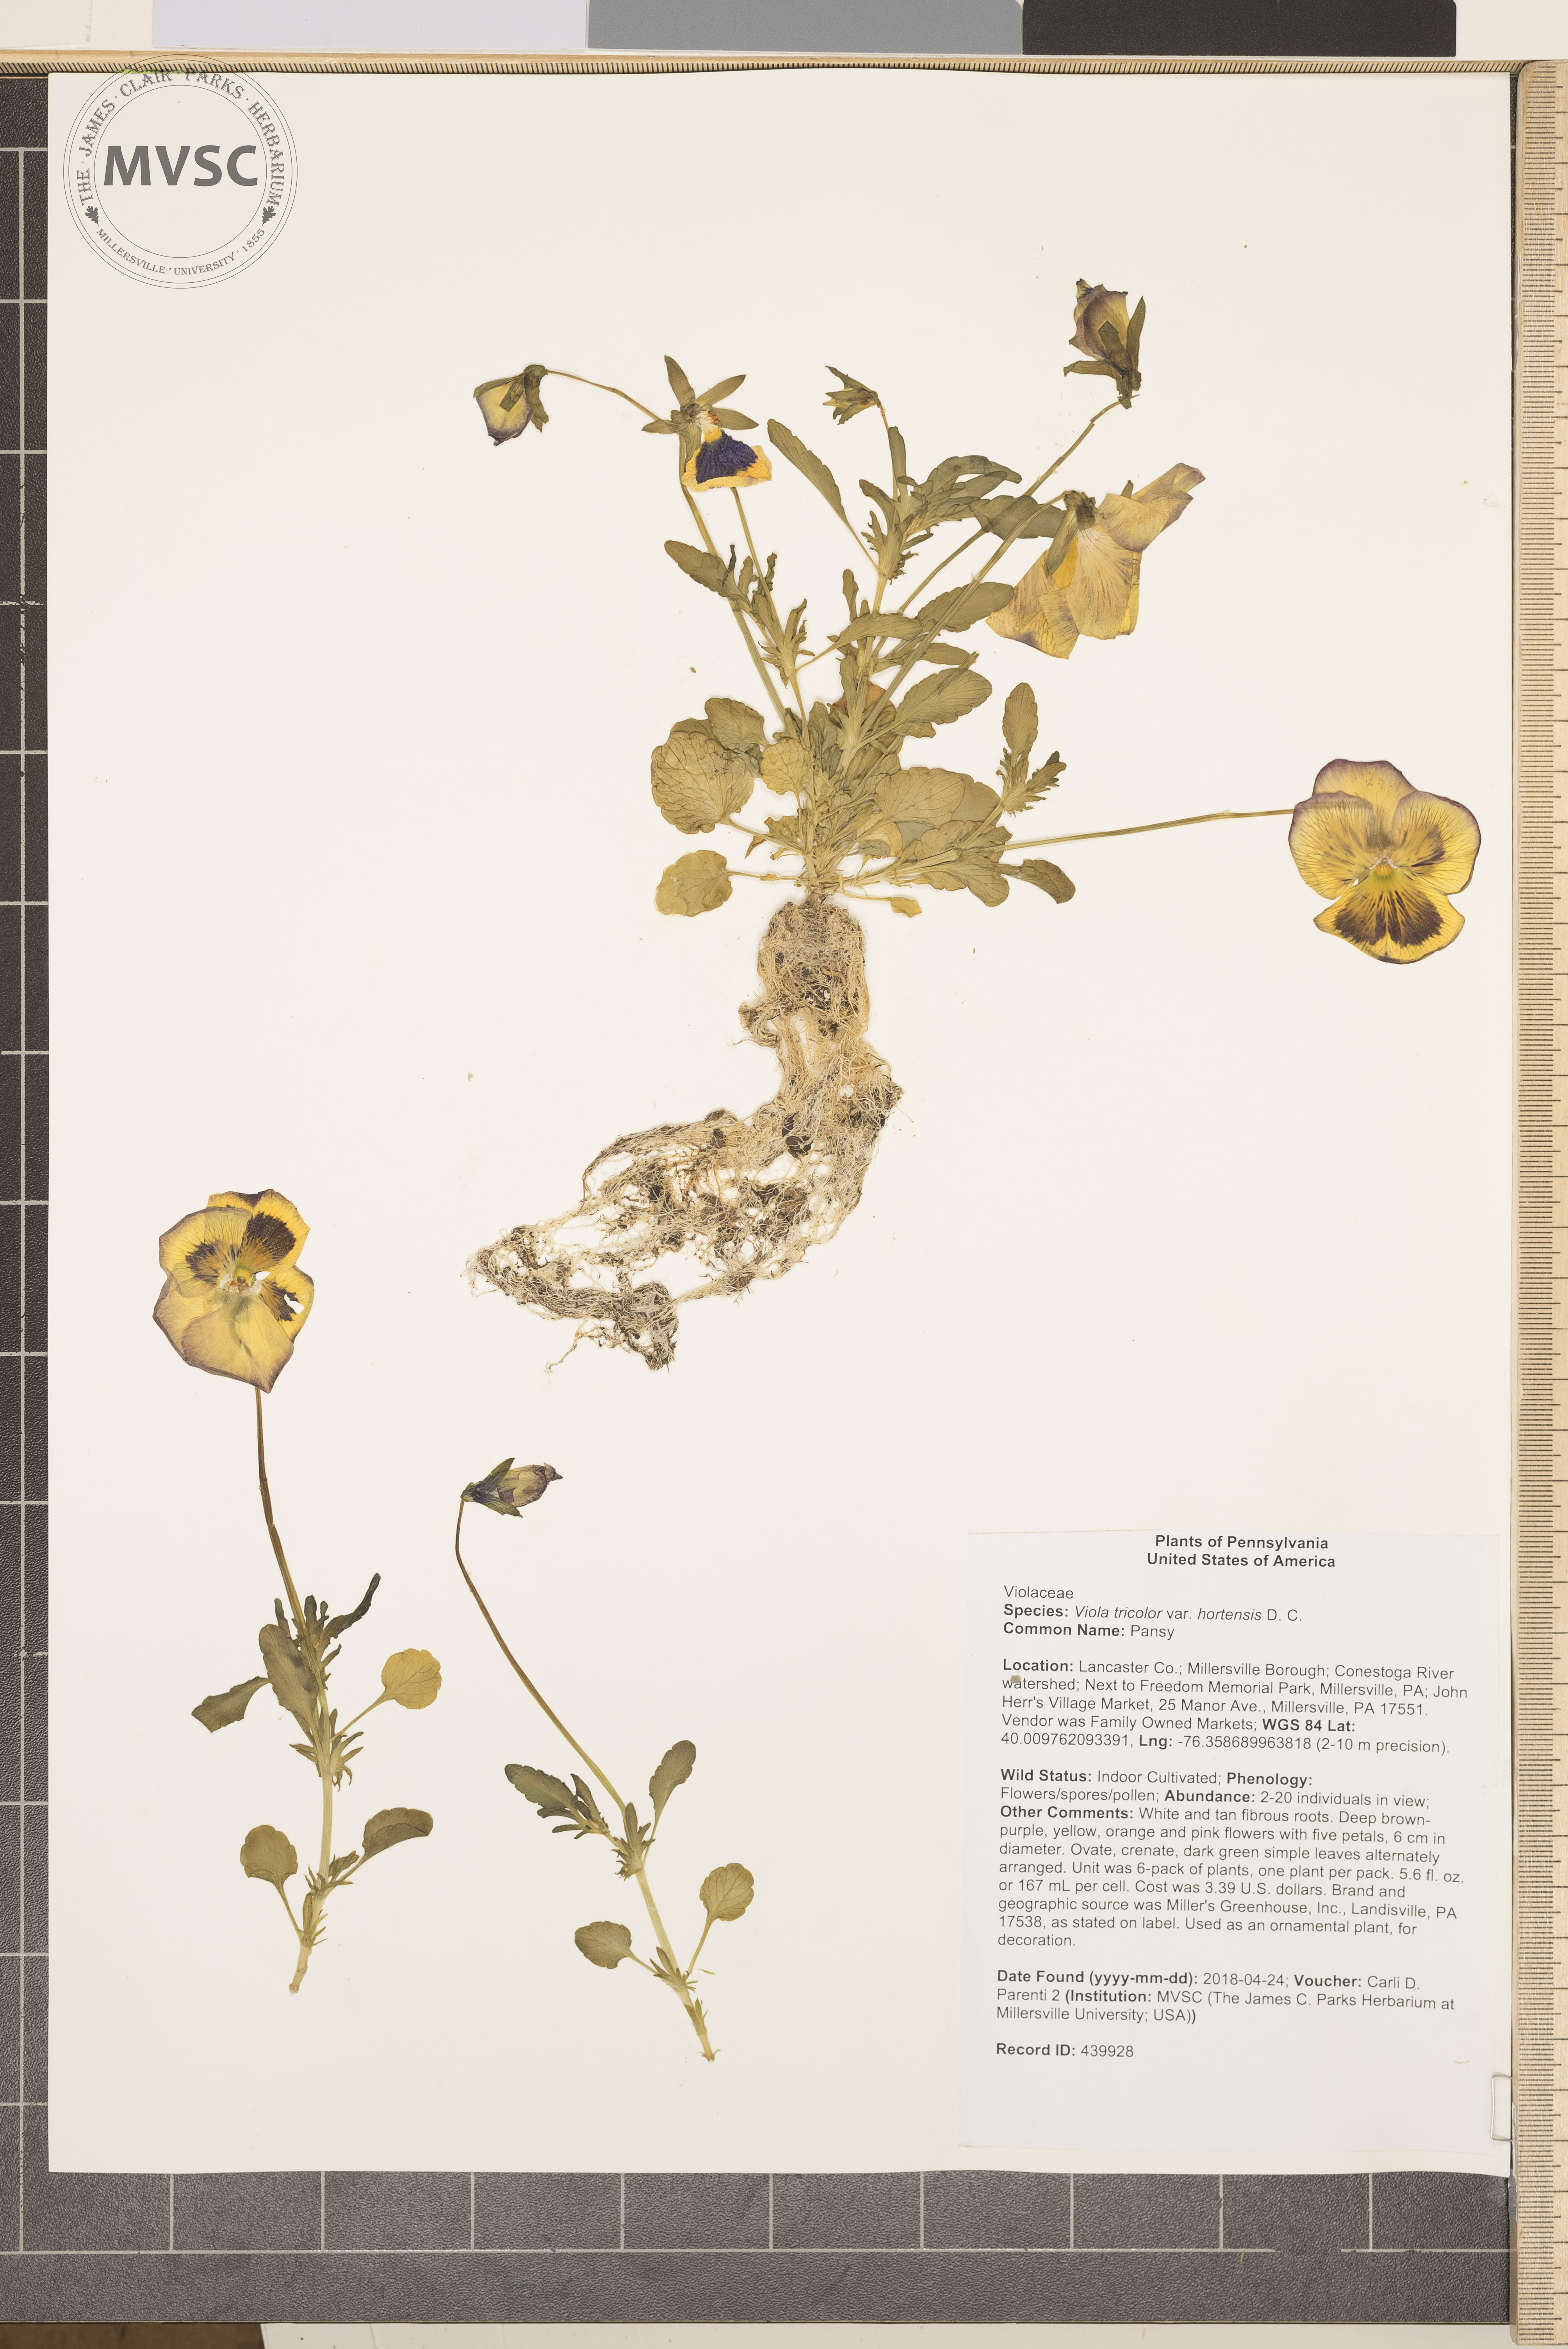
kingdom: Plantae
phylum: Tracheophyta
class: Magnoliopsida
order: Malpighiales
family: Violaceae
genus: Viola
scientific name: Viola tricolor
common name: Pansy
